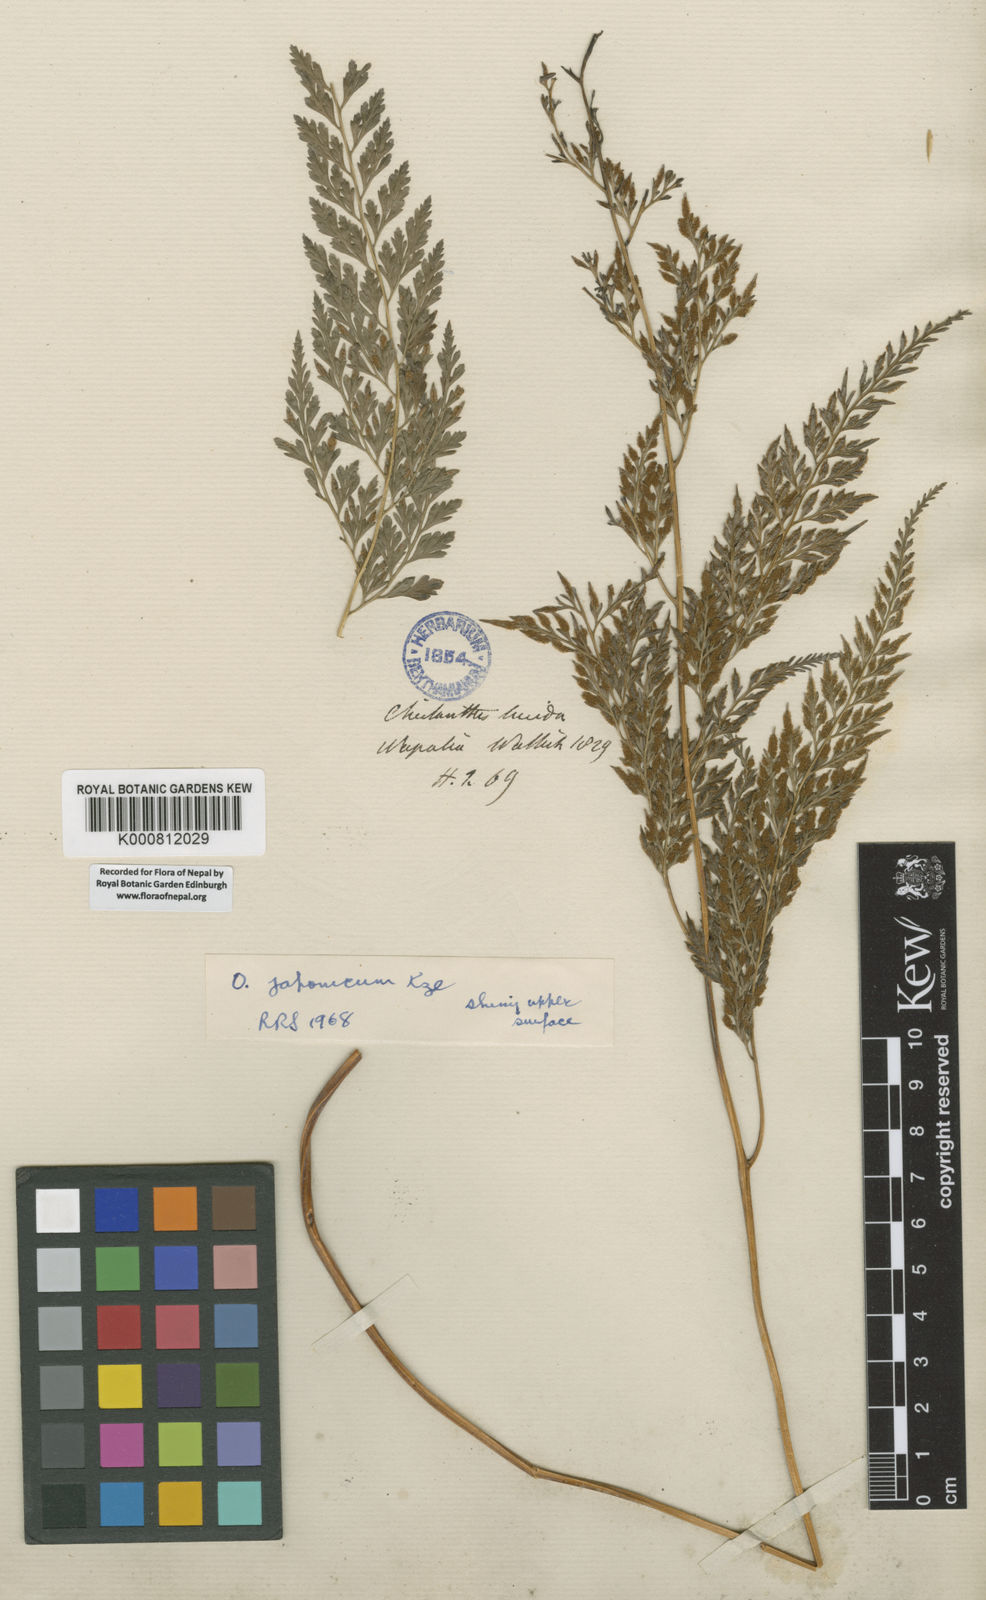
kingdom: Plantae
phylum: Tracheophyta
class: Polypodiopsida
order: Polypodiales
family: Pteridaceae
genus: Onychium
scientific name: Onychium vermae
